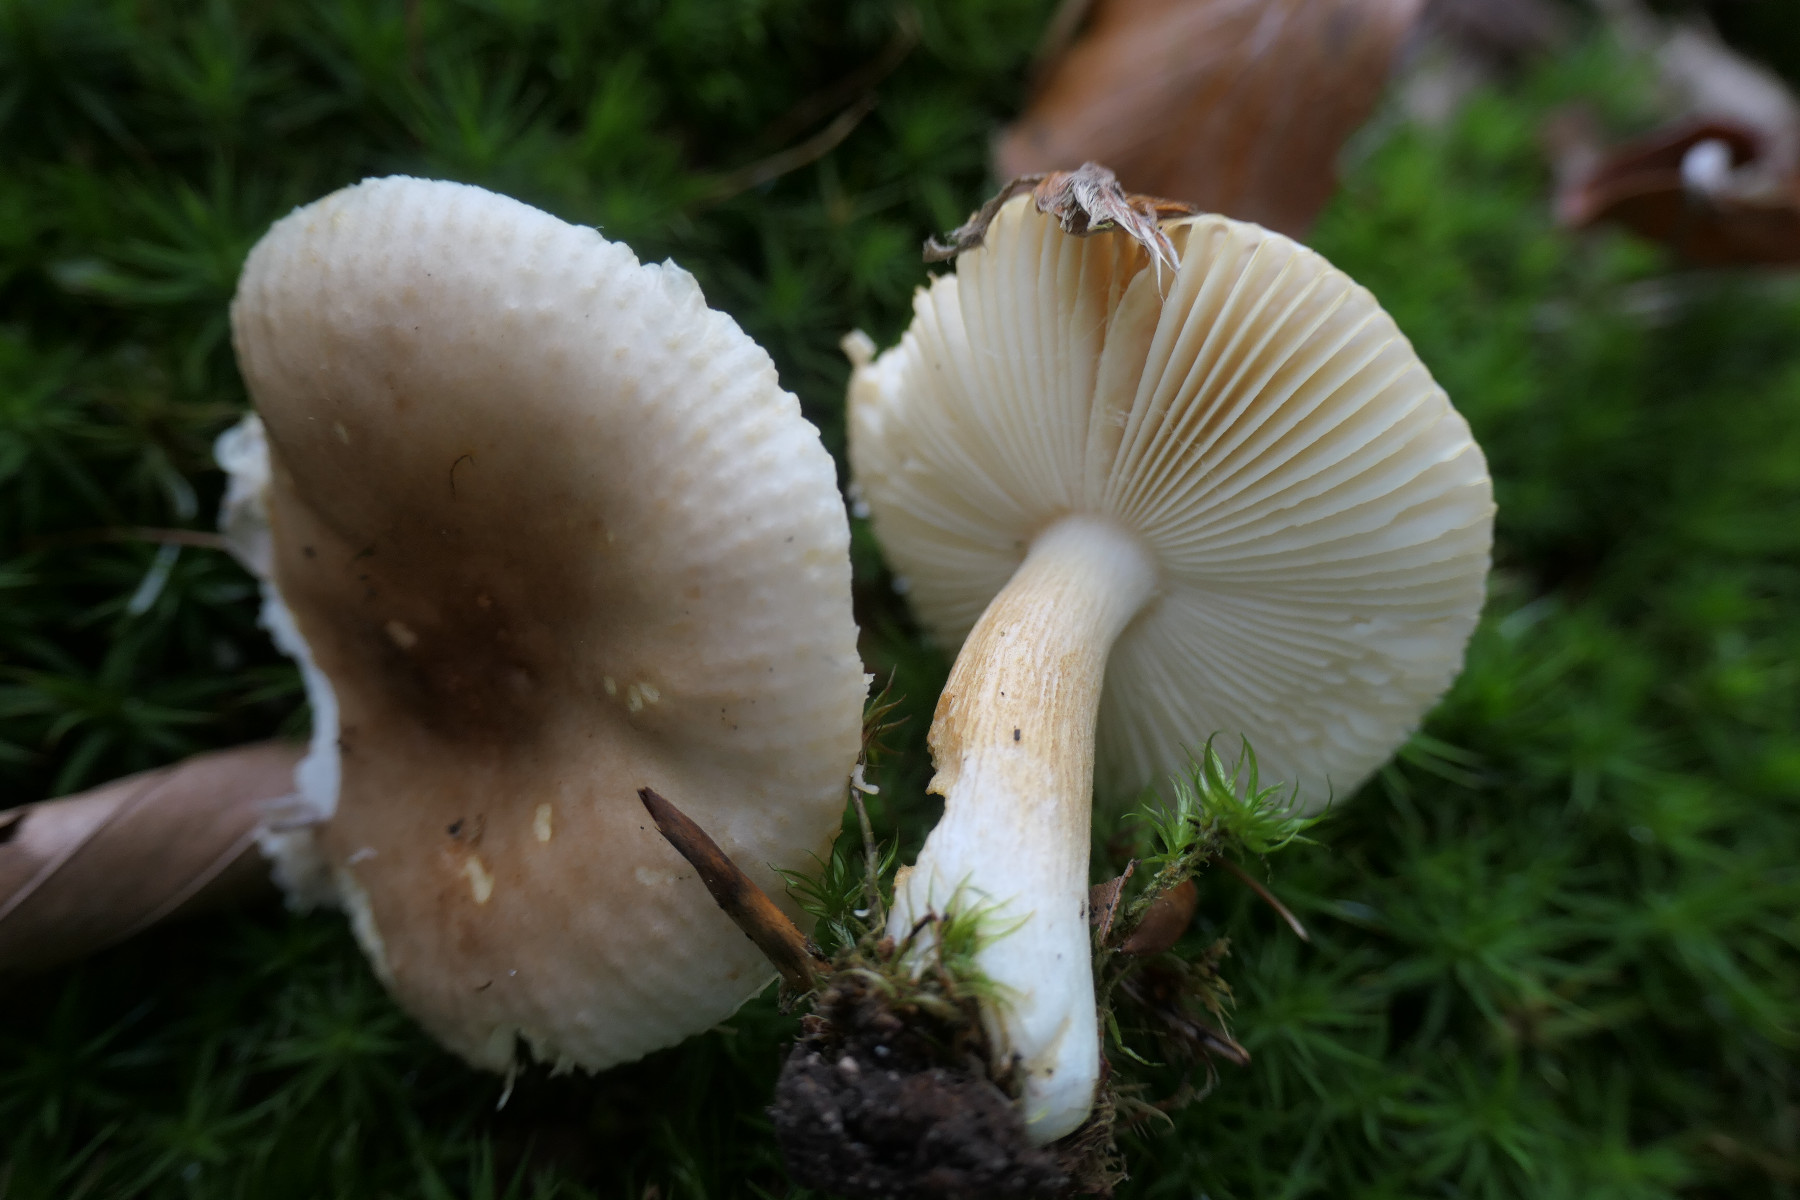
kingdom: Fungi
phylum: Basidiomycota
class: Agaricomycetes
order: Russulales
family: Russulaceae
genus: Russula
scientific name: Russula puellaris
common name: gulstokket skørhat
